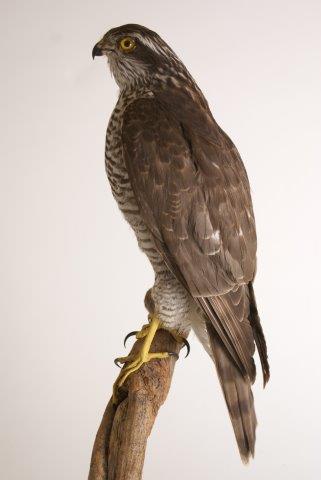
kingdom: Animalia
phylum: Chordata
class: Aves
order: Accipitriformes
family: Accipitridae
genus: Accipiter
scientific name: Accipiter nisus
